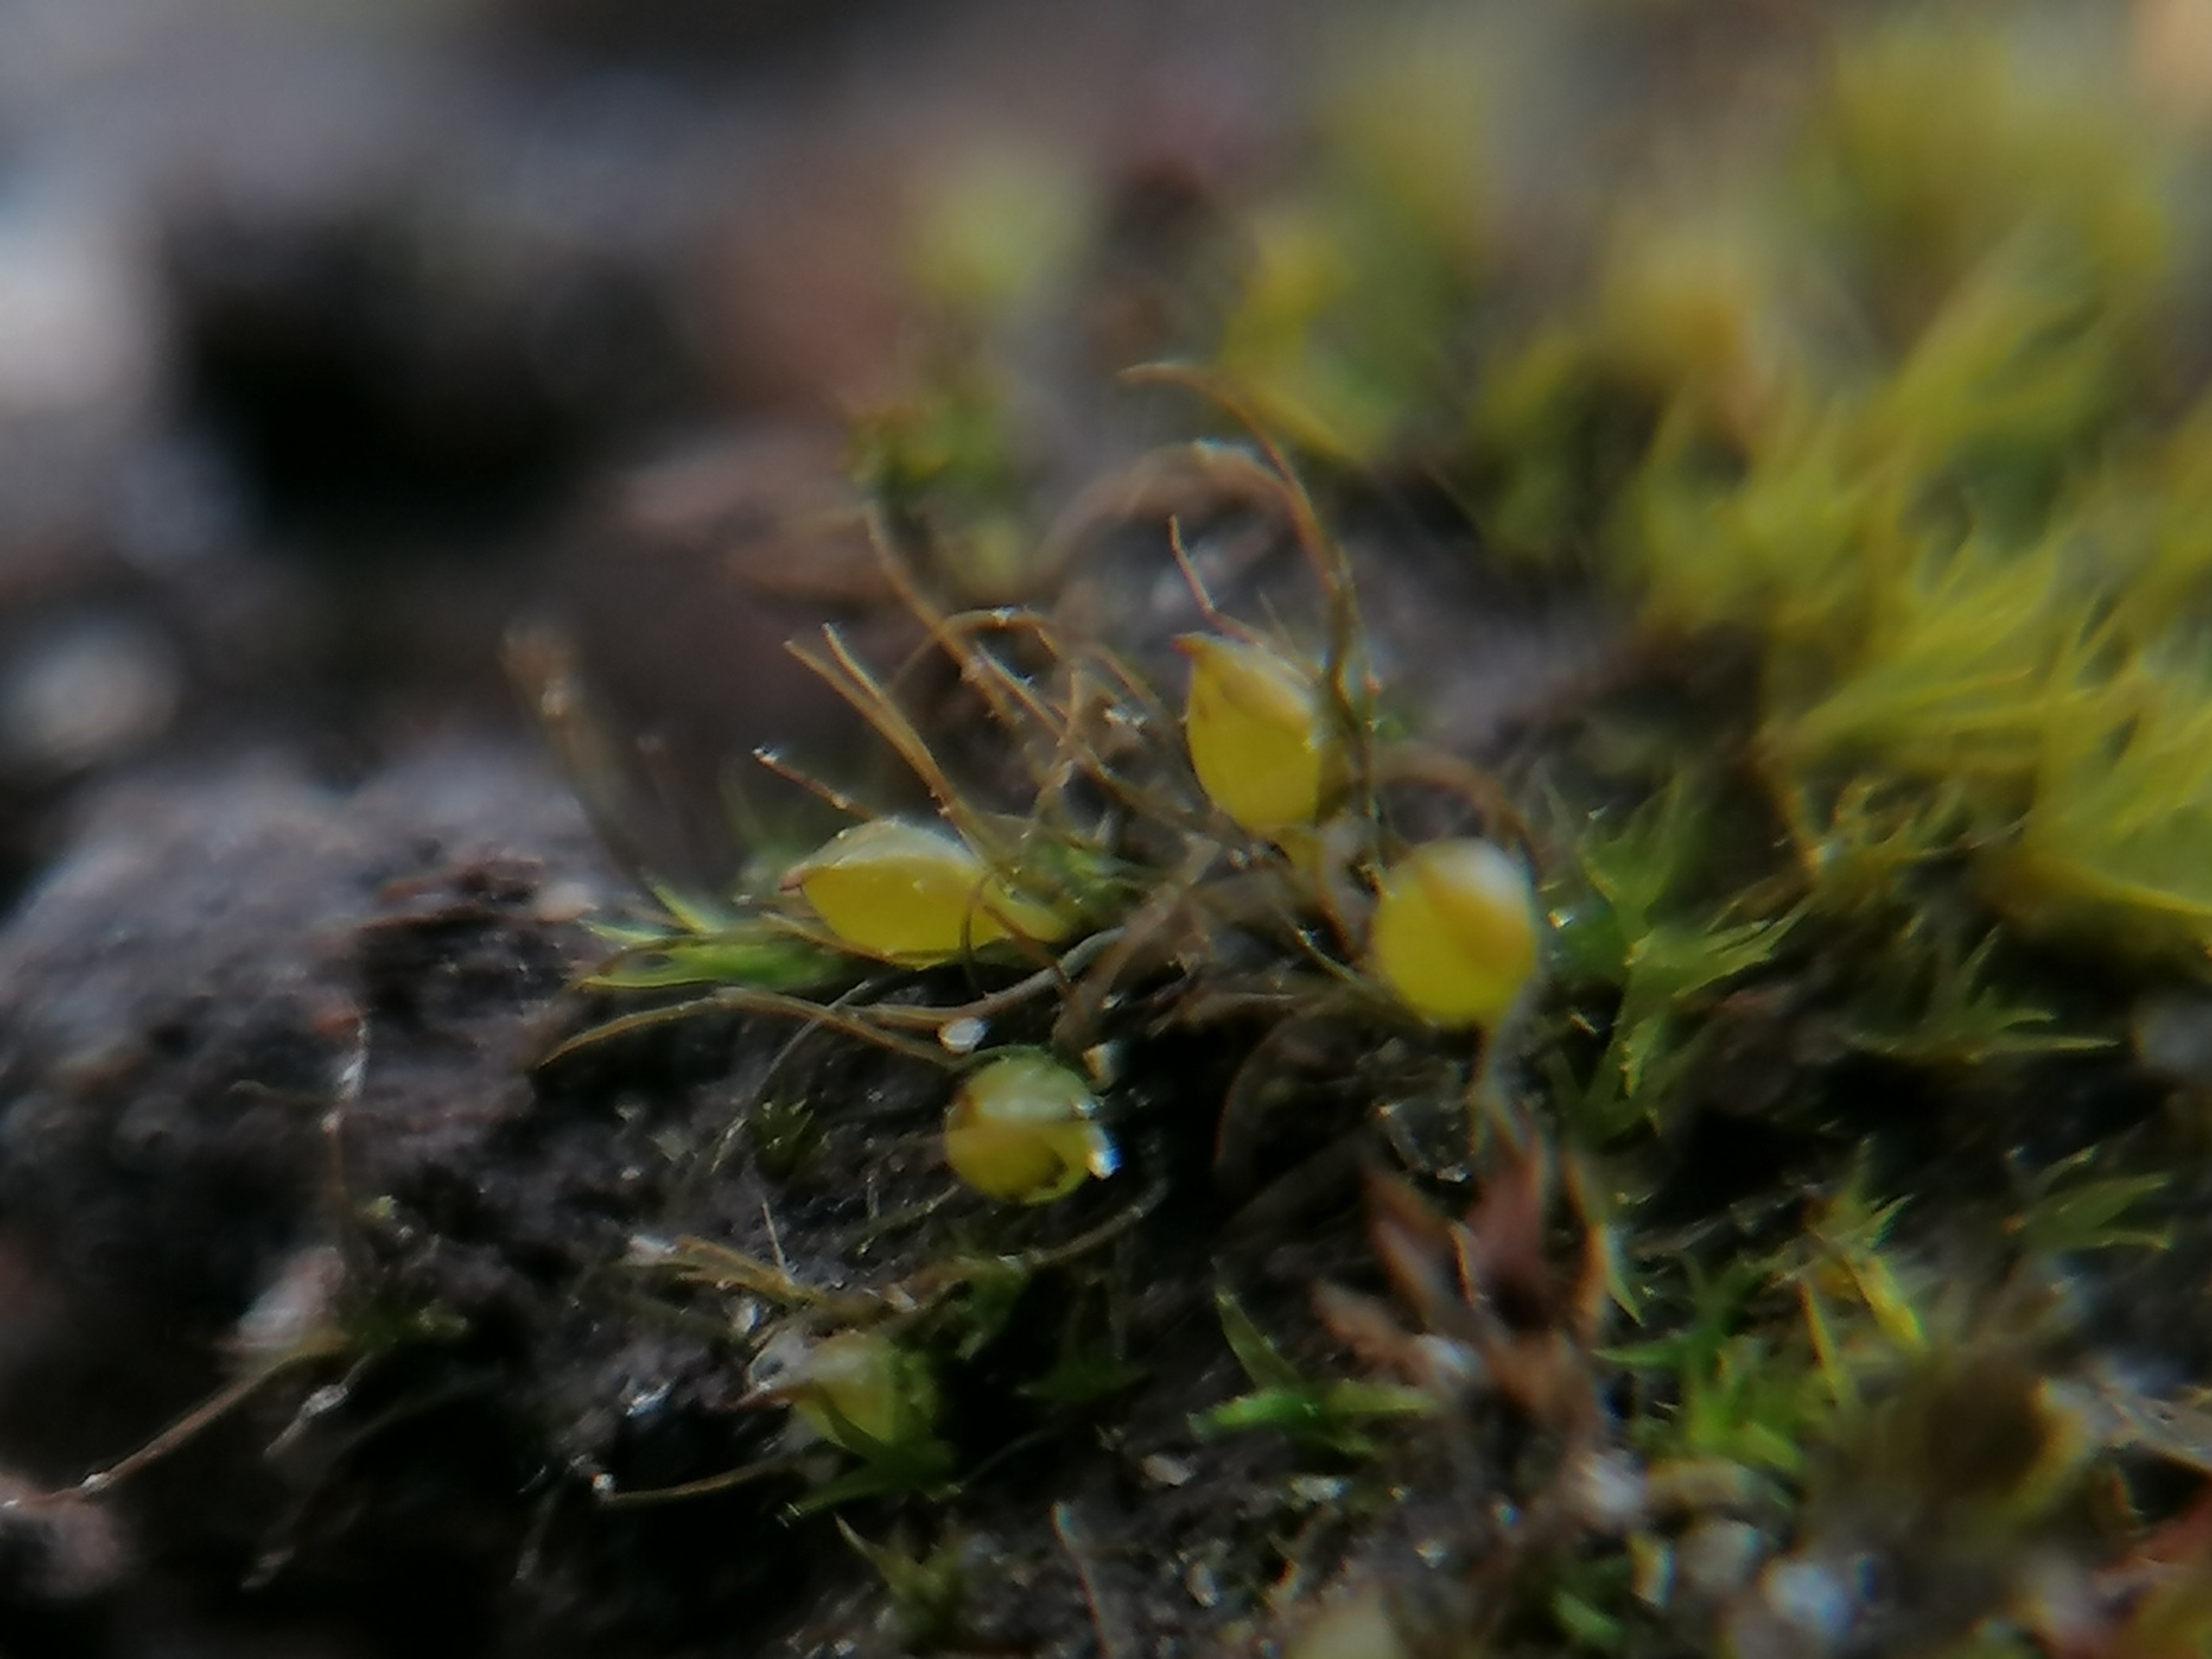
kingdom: Plantae
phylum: Bryophyta
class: Bryopsida
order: Dicranales
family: Ditrichaceae
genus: Pleuridium
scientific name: Pleuridium subulatum
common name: Kortstilket sylbladsmos
